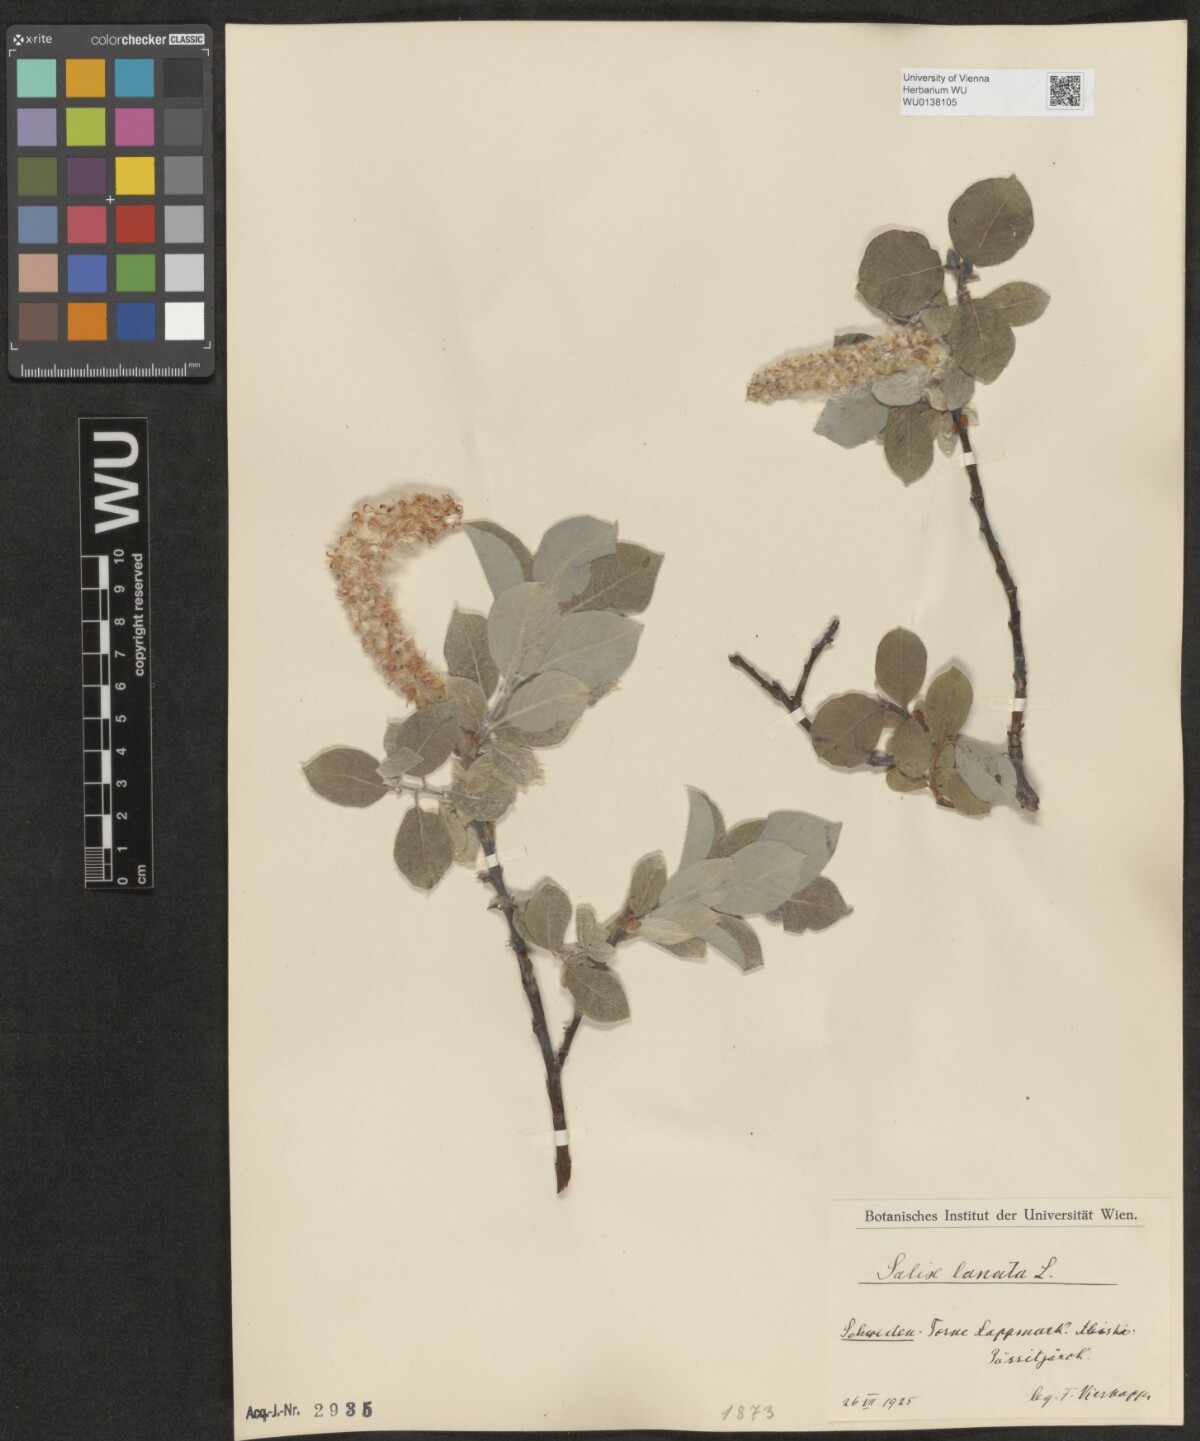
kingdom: Plantae
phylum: Tracheophyta
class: Magnoliopsida
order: Malpighiales
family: Salicaceae
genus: Salix
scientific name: Salix lanata
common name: Woolly willow
